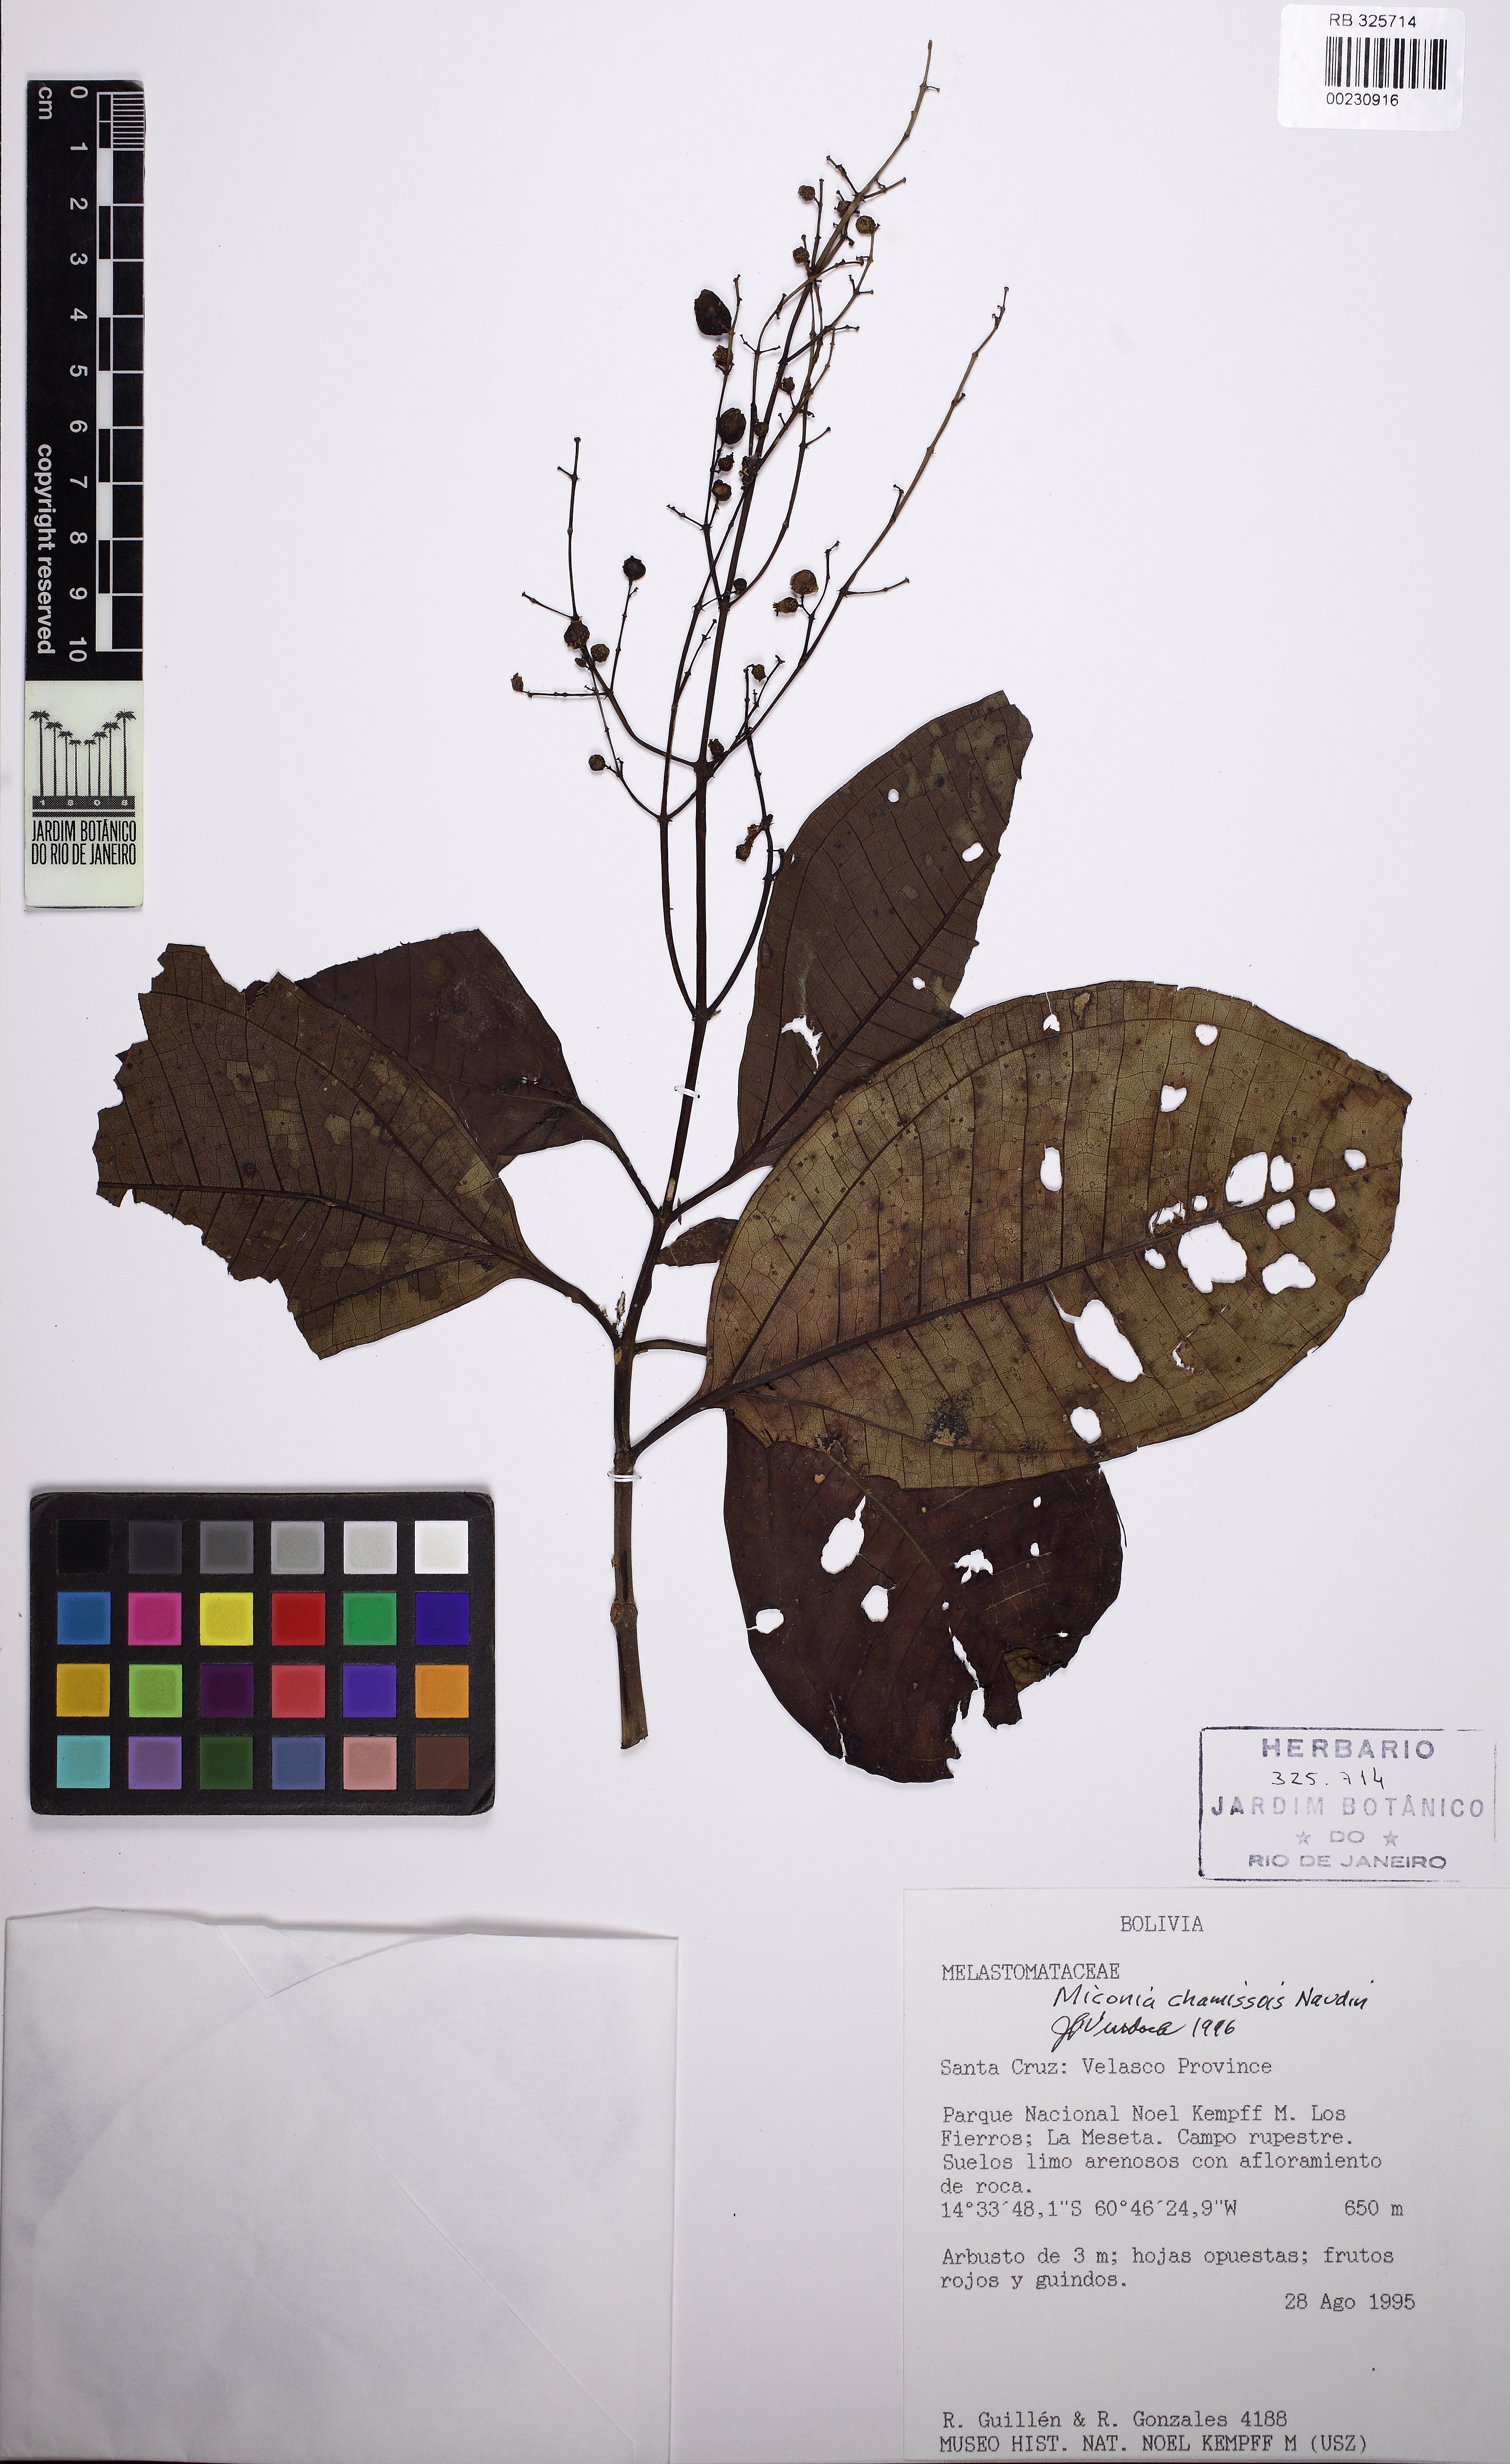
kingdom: Plantae
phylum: Tracheophyta
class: Magnoliopsida
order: Myrtales
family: Melastomataceae
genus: Miconia
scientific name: Miconia chamissois
